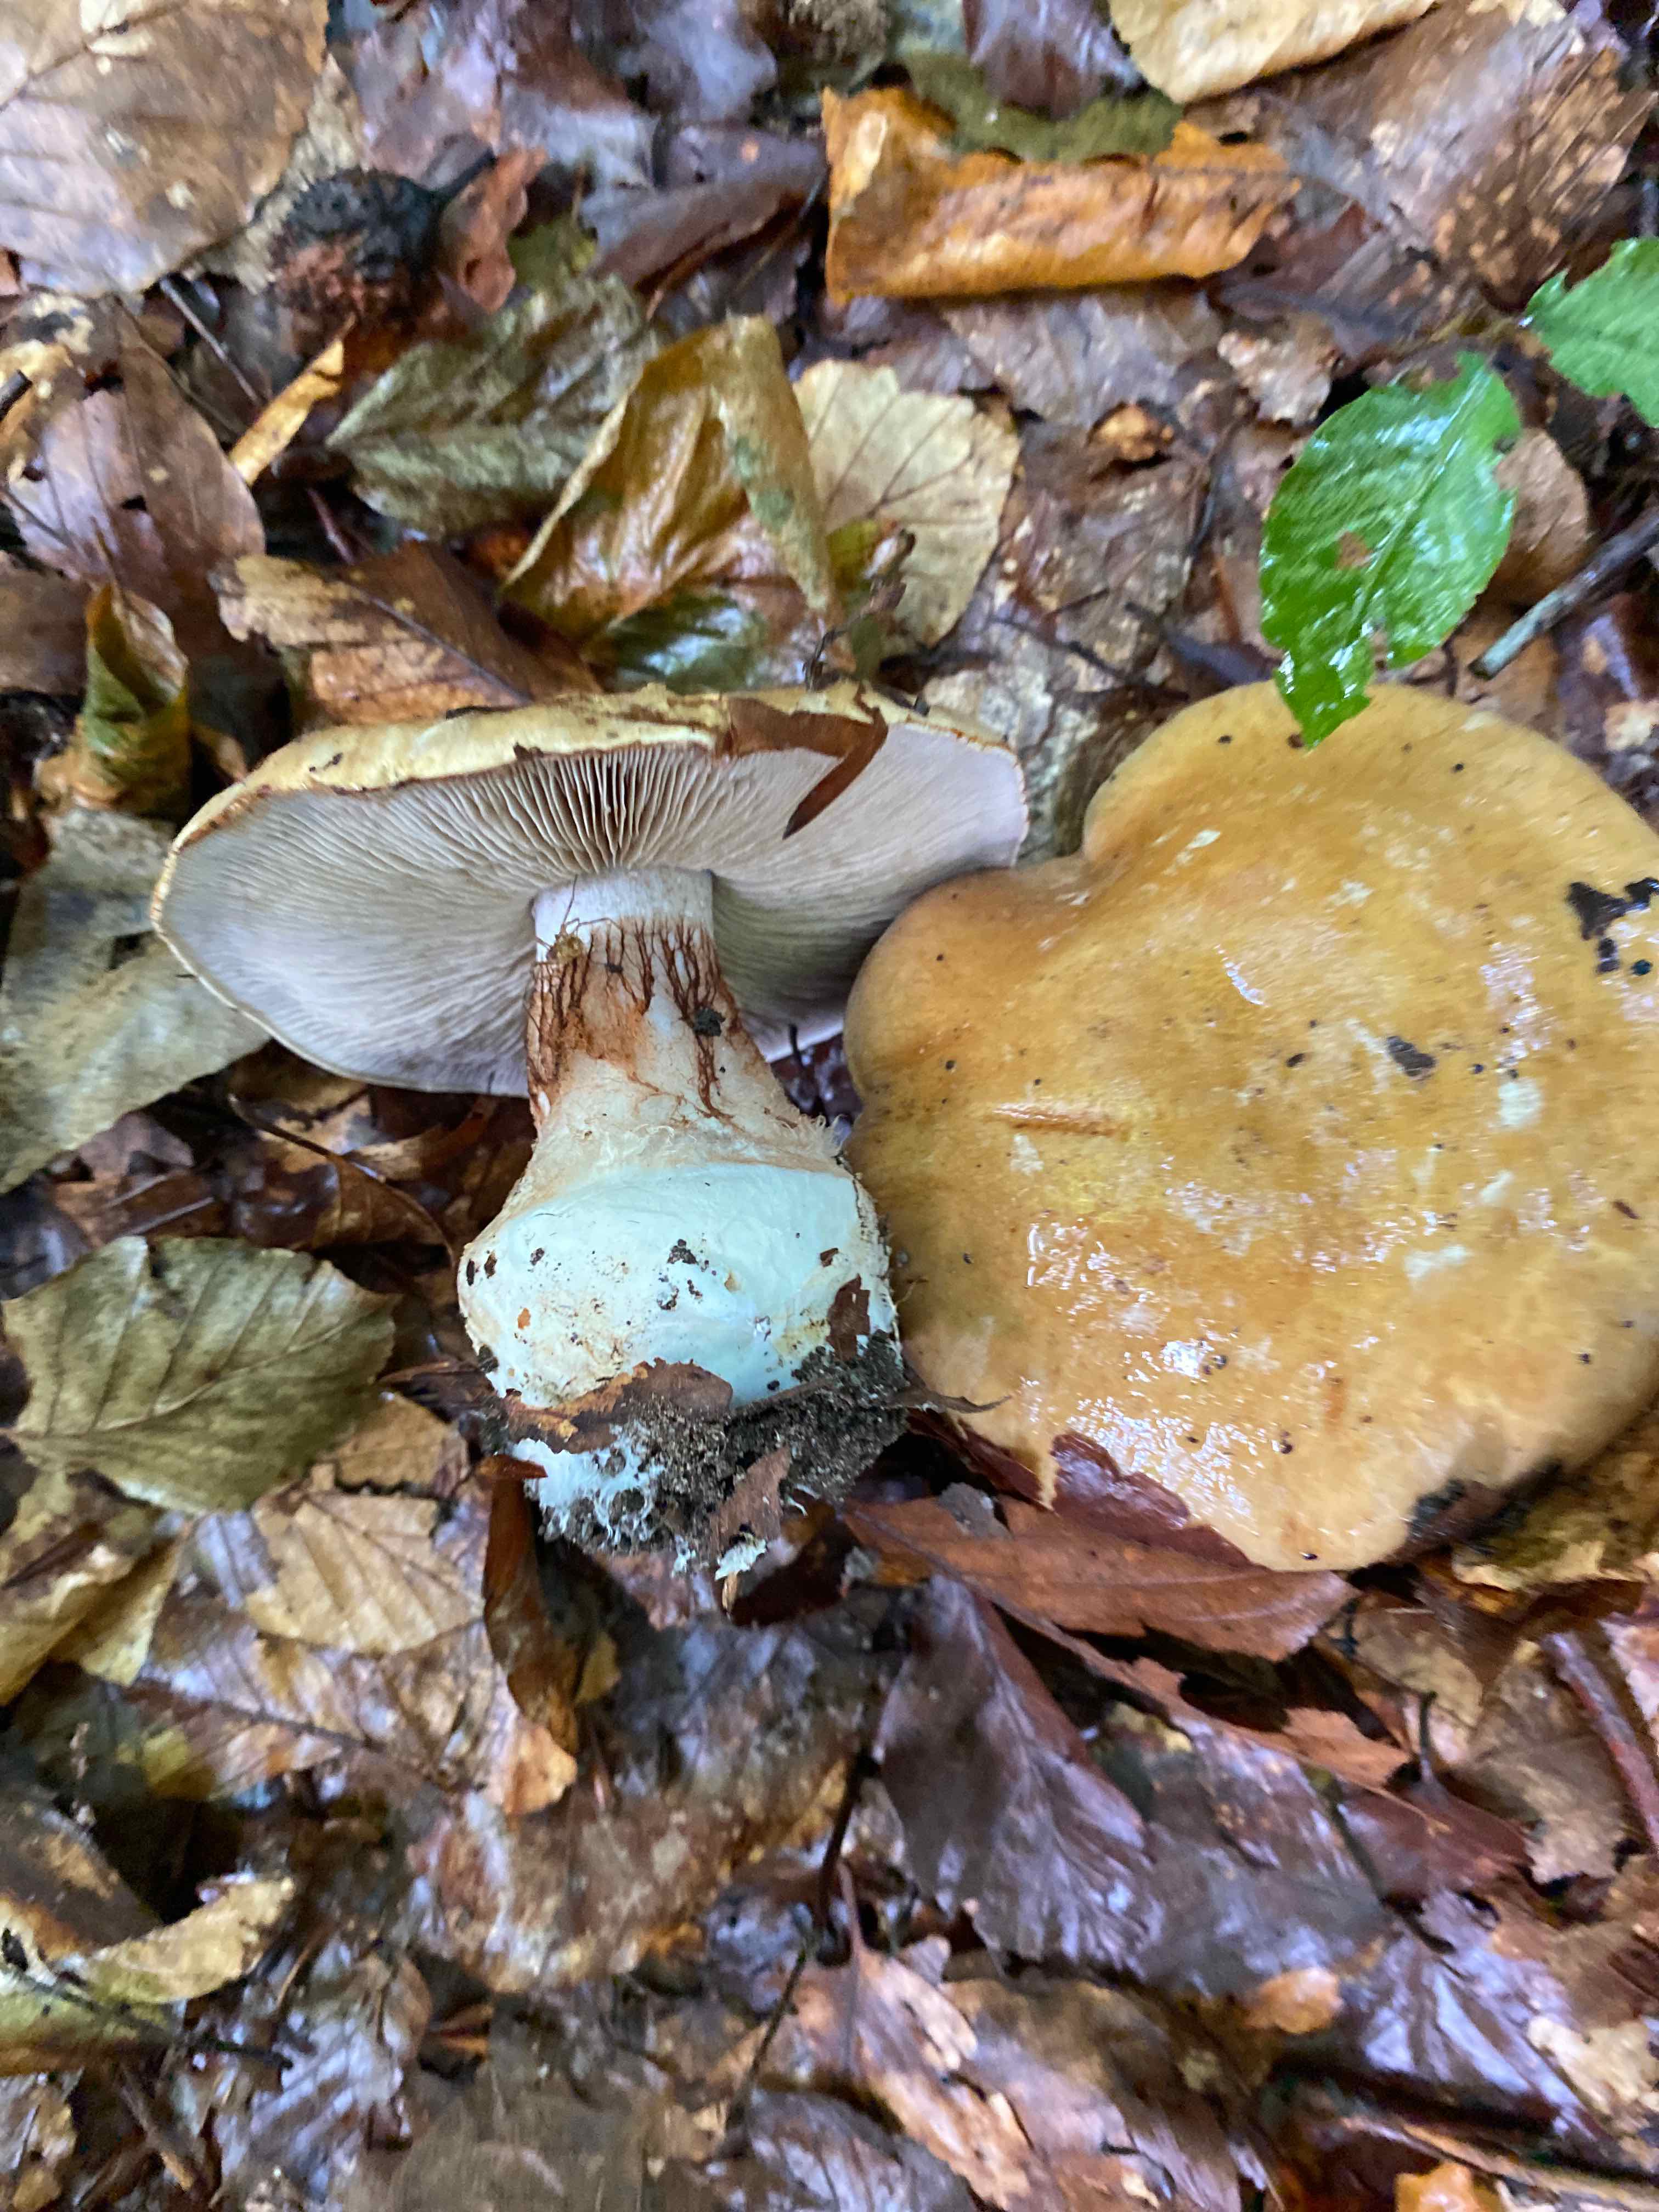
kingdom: Fungi
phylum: Basidiomycota
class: Agaricomycetes
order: Agaricales
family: Cortinariaceae
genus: Cortinarius
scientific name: Cortinarius anserinus
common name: bøge-slørhat
